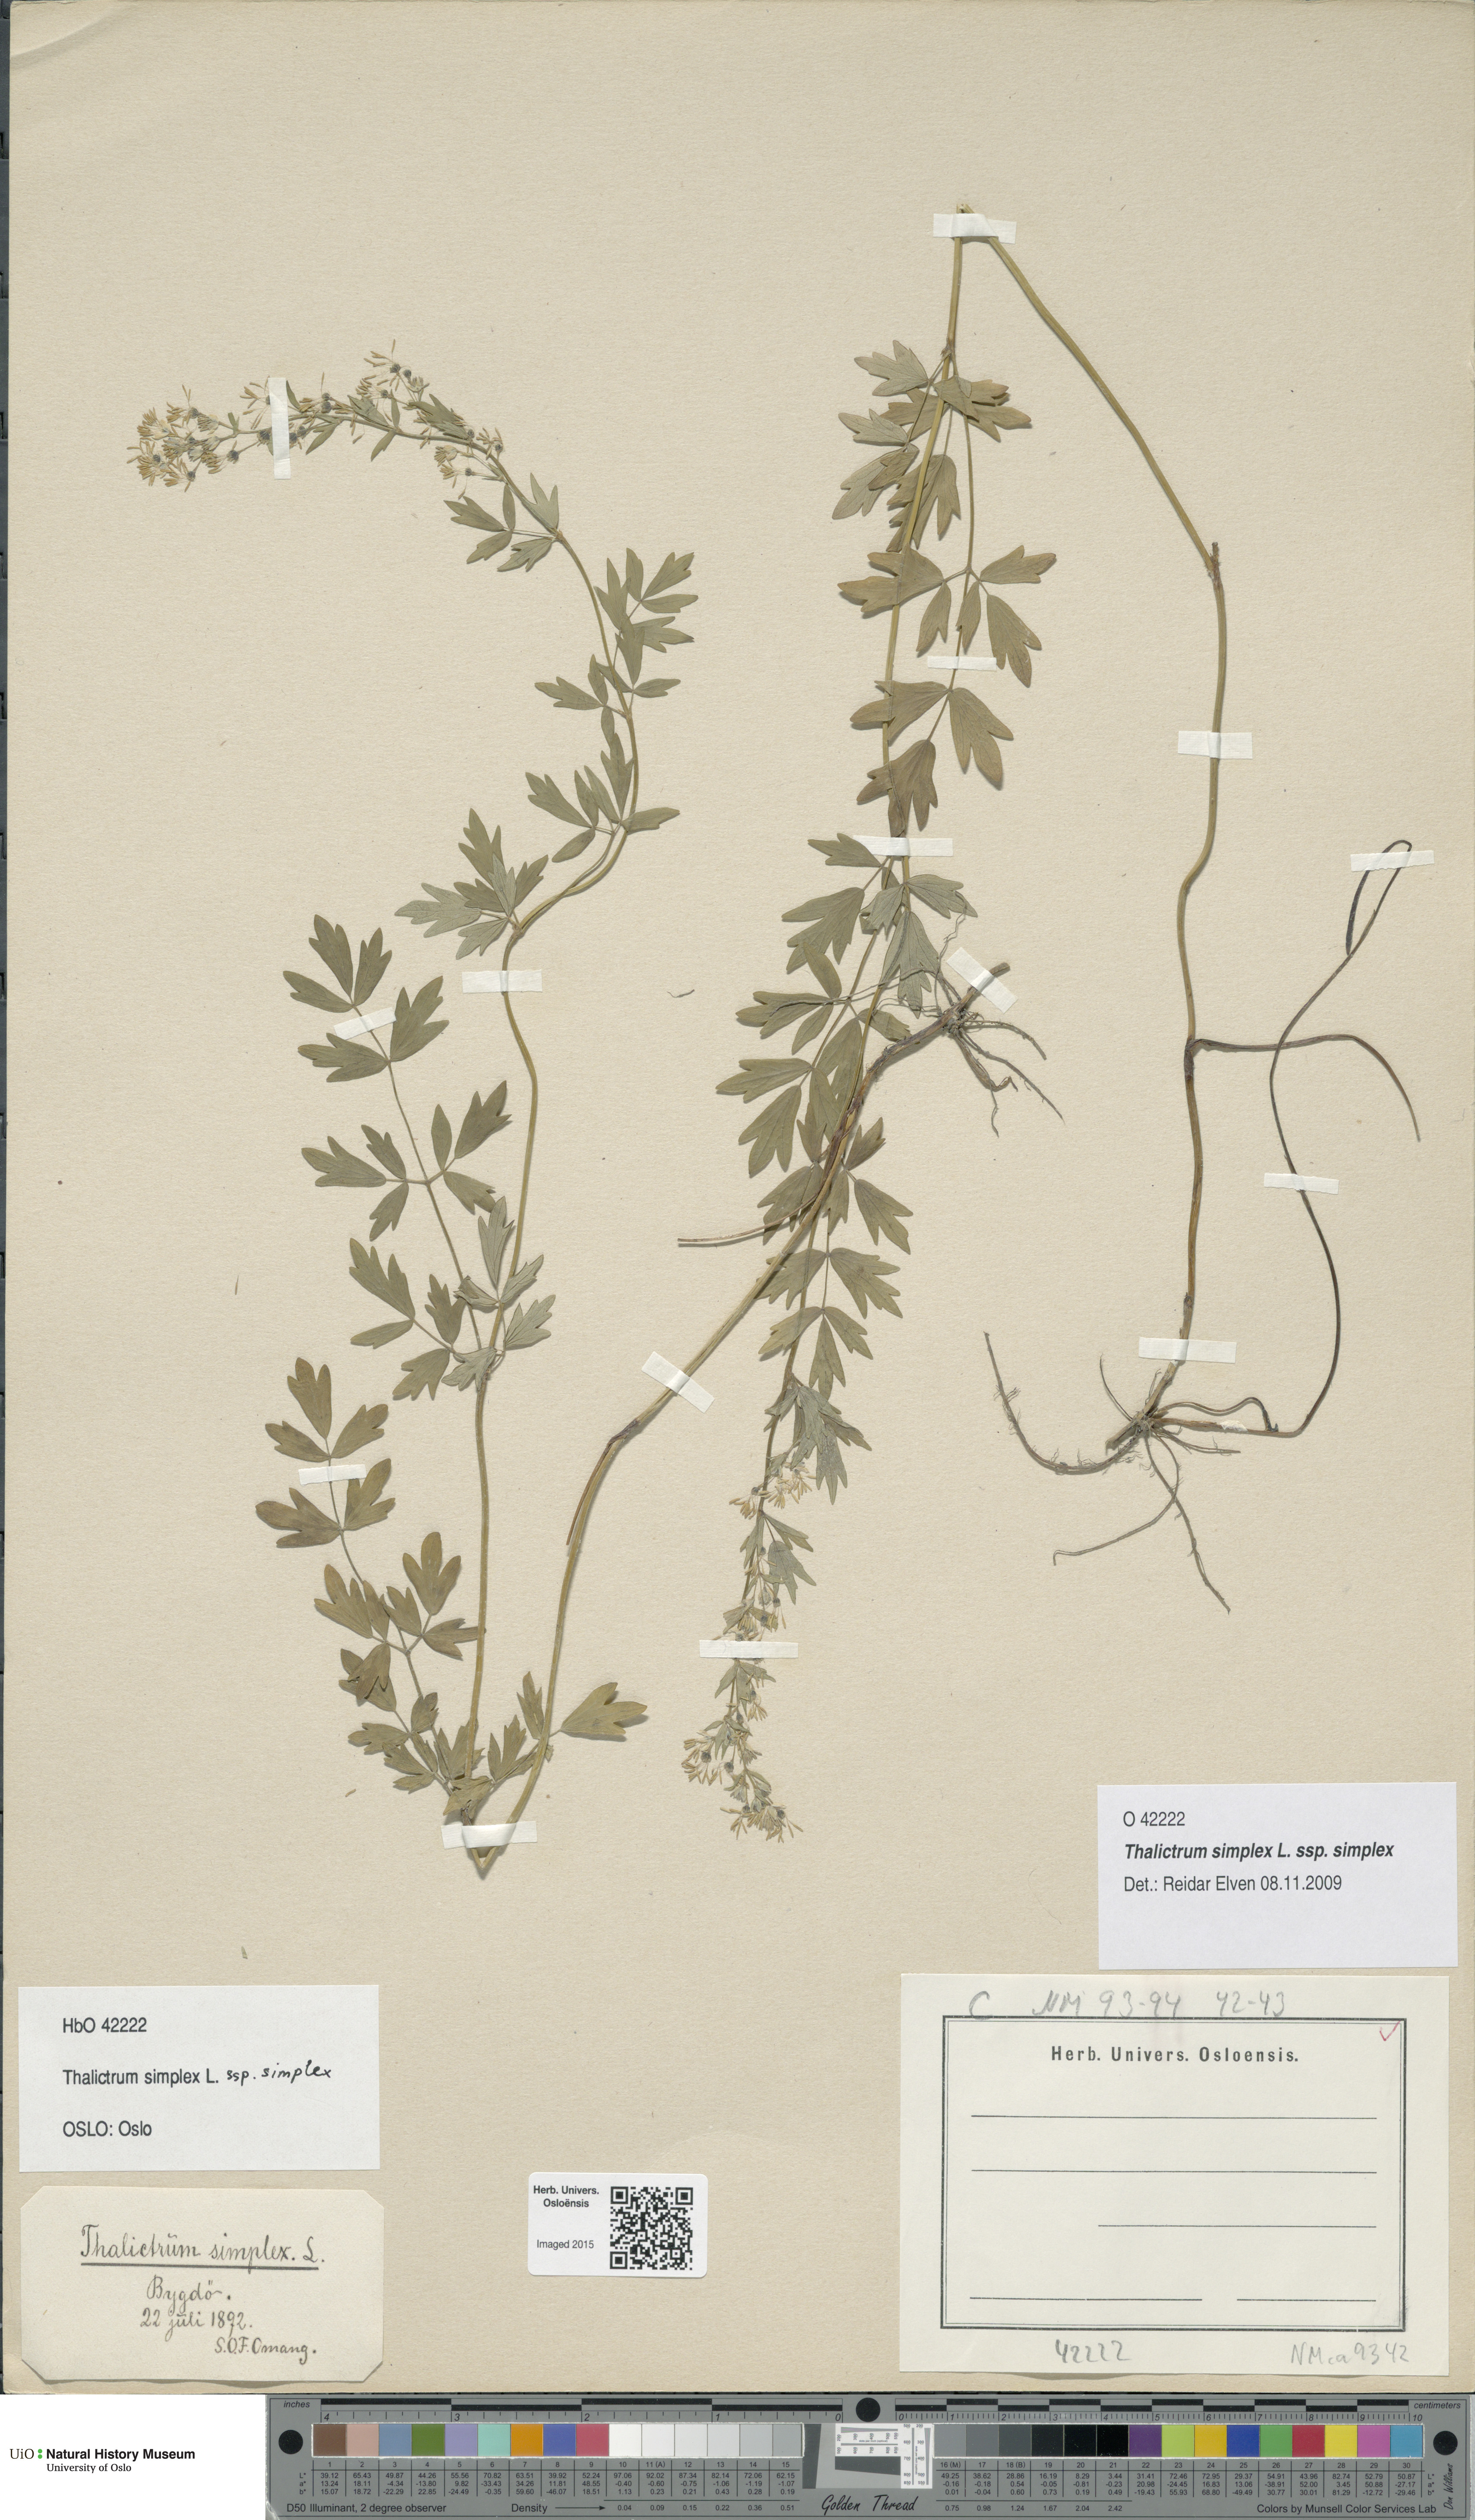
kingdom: Plantae
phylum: Tracheophyta
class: Magnoliopsida
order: Ranunculales
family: Ranunculaceae
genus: Thalictrum
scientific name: Thalictrum simplex
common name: Small meadow-rue
